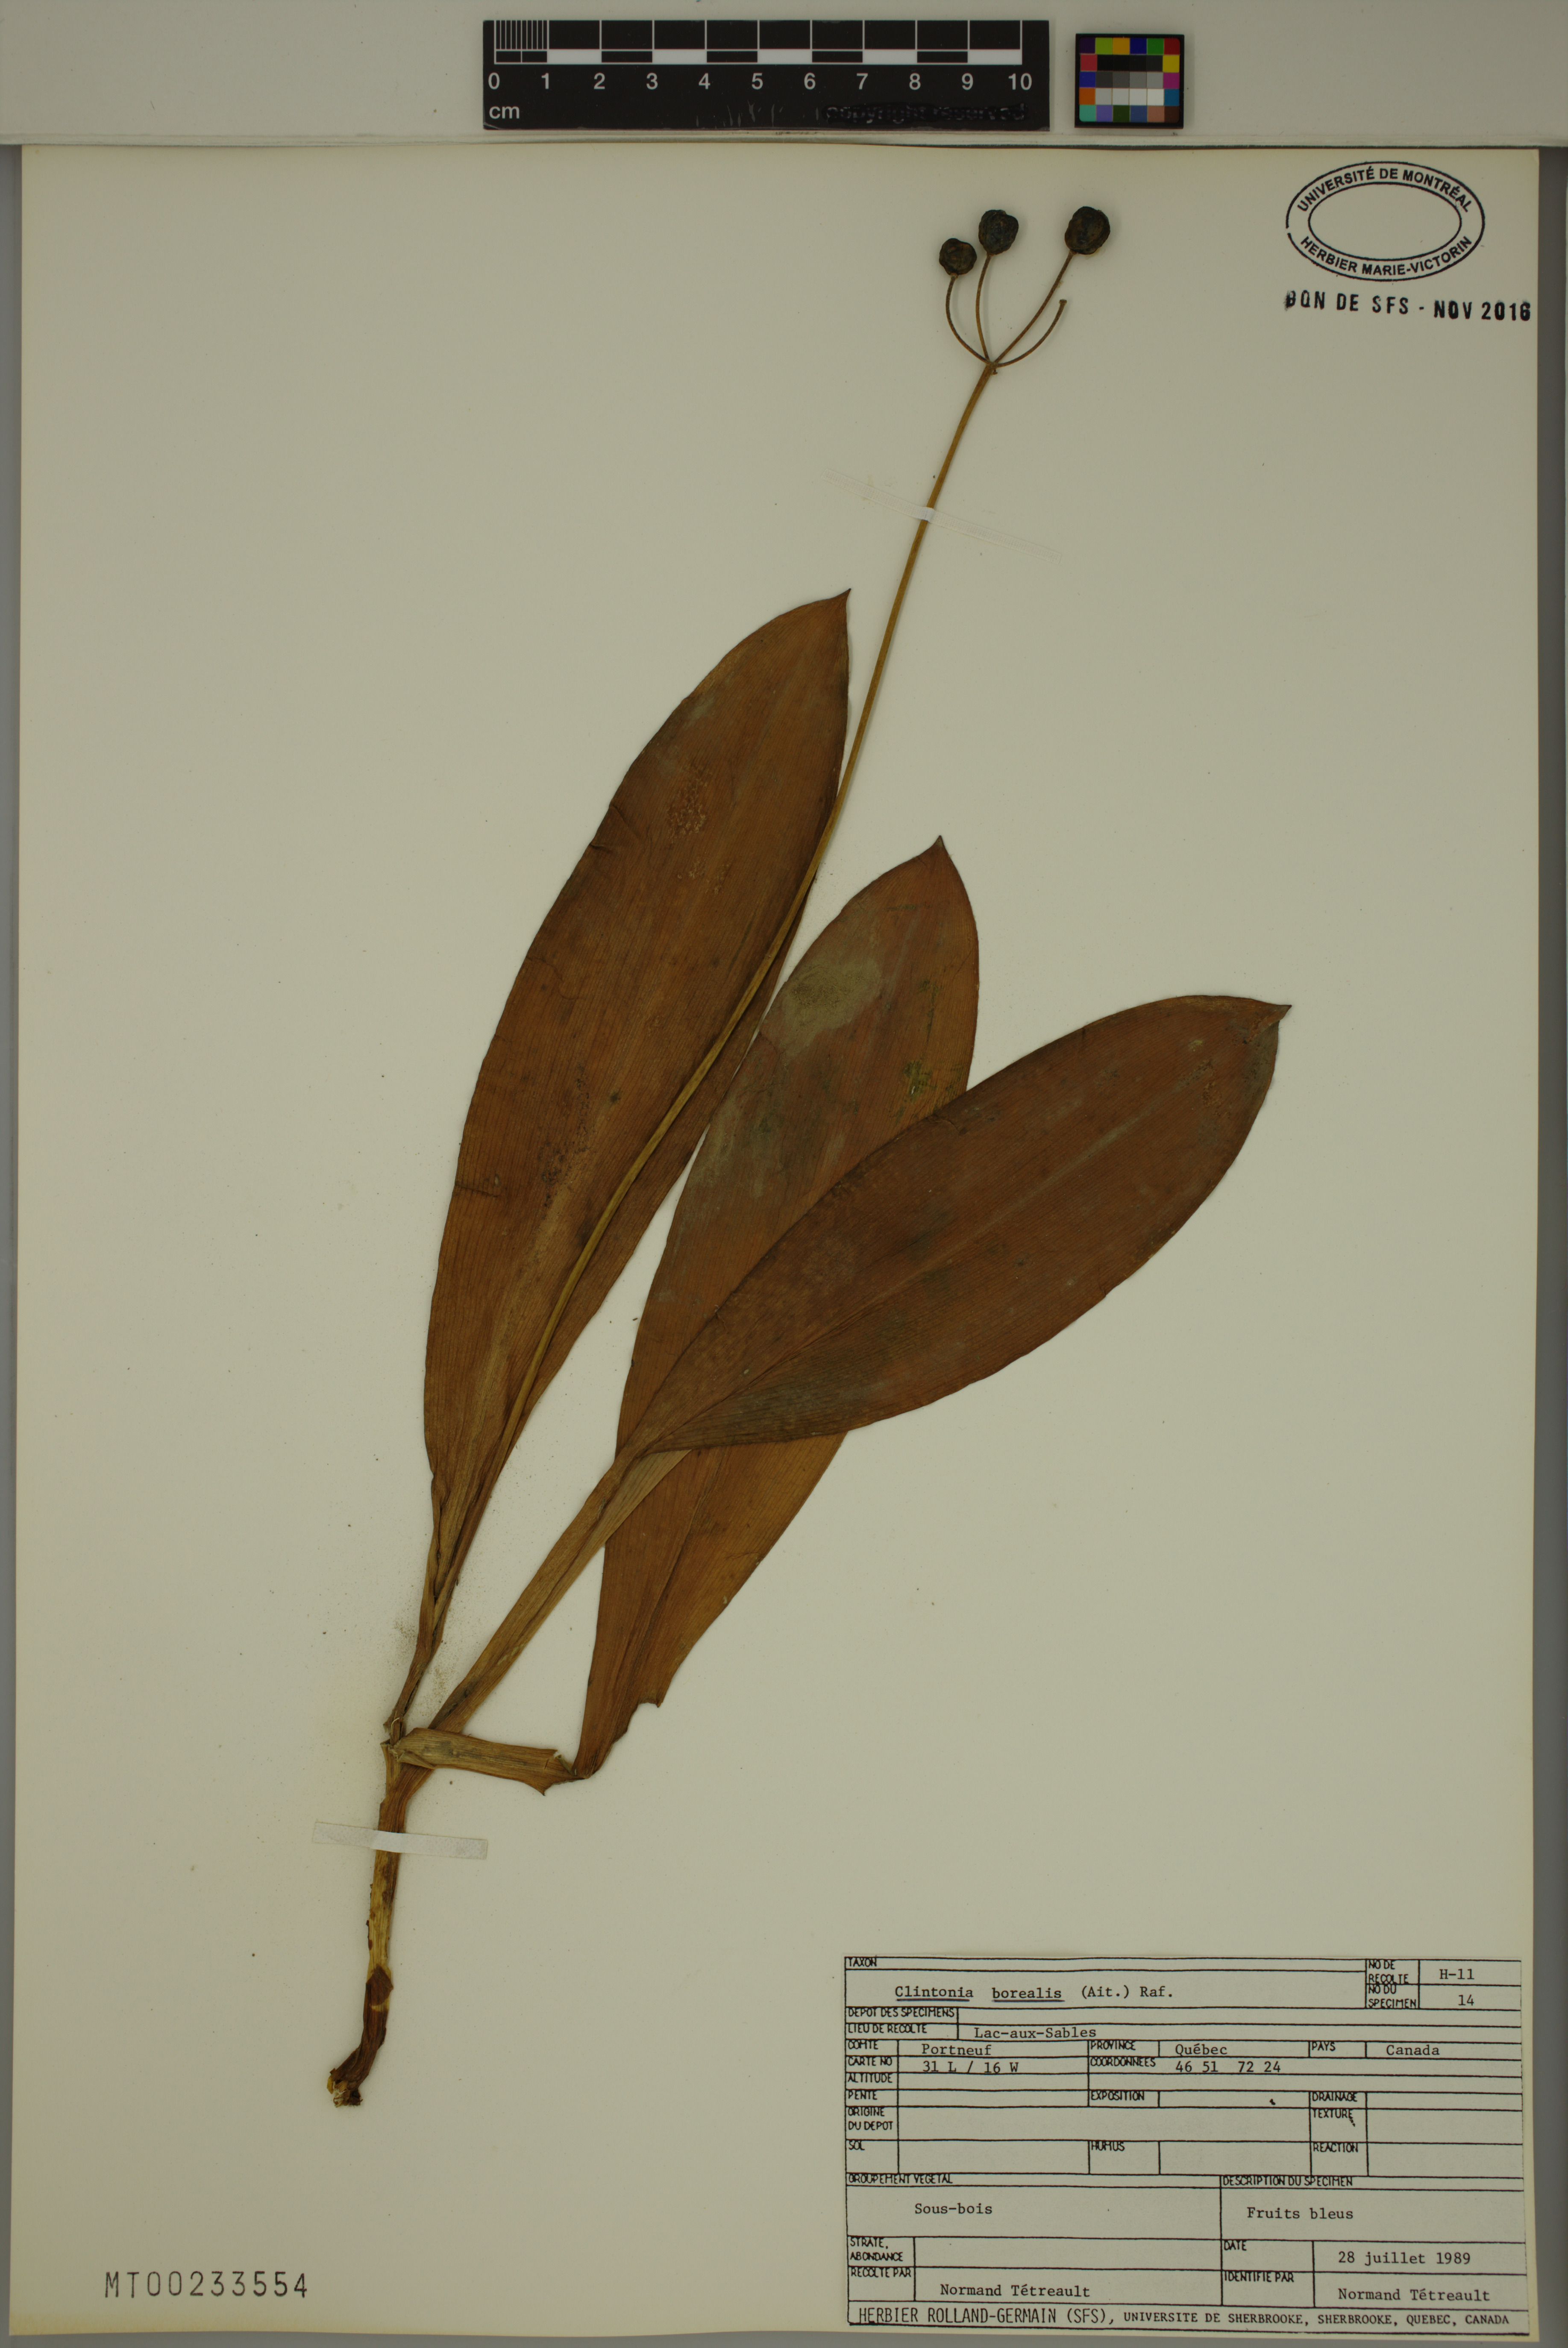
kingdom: Plantae
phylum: Tracheophyta
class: Liliopsida
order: Liliales
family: Liliaceae
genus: Clintonia
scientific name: Clintonia borealis
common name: Yellow clintonia
